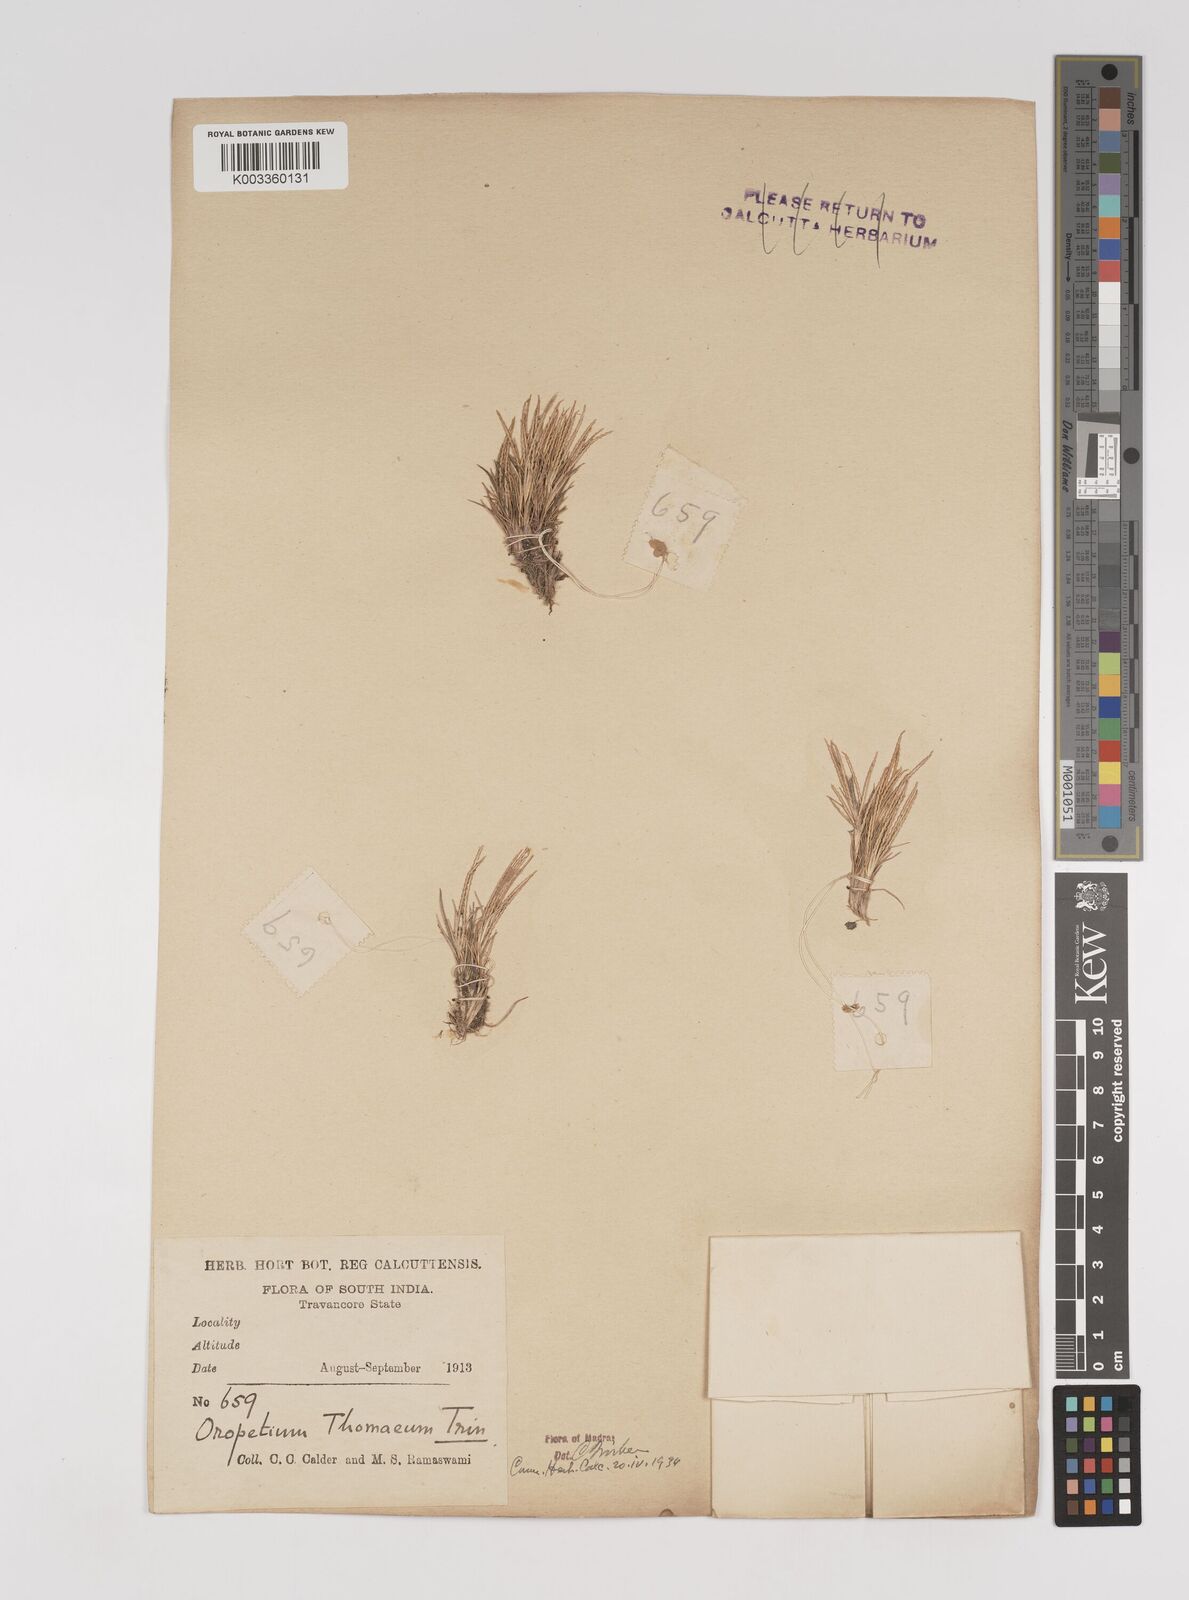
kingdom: Plantae
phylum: Tracheophyta
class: Liliopsida
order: Poales
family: Poaceae
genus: Oropetium
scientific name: Oropetium thomaeum
